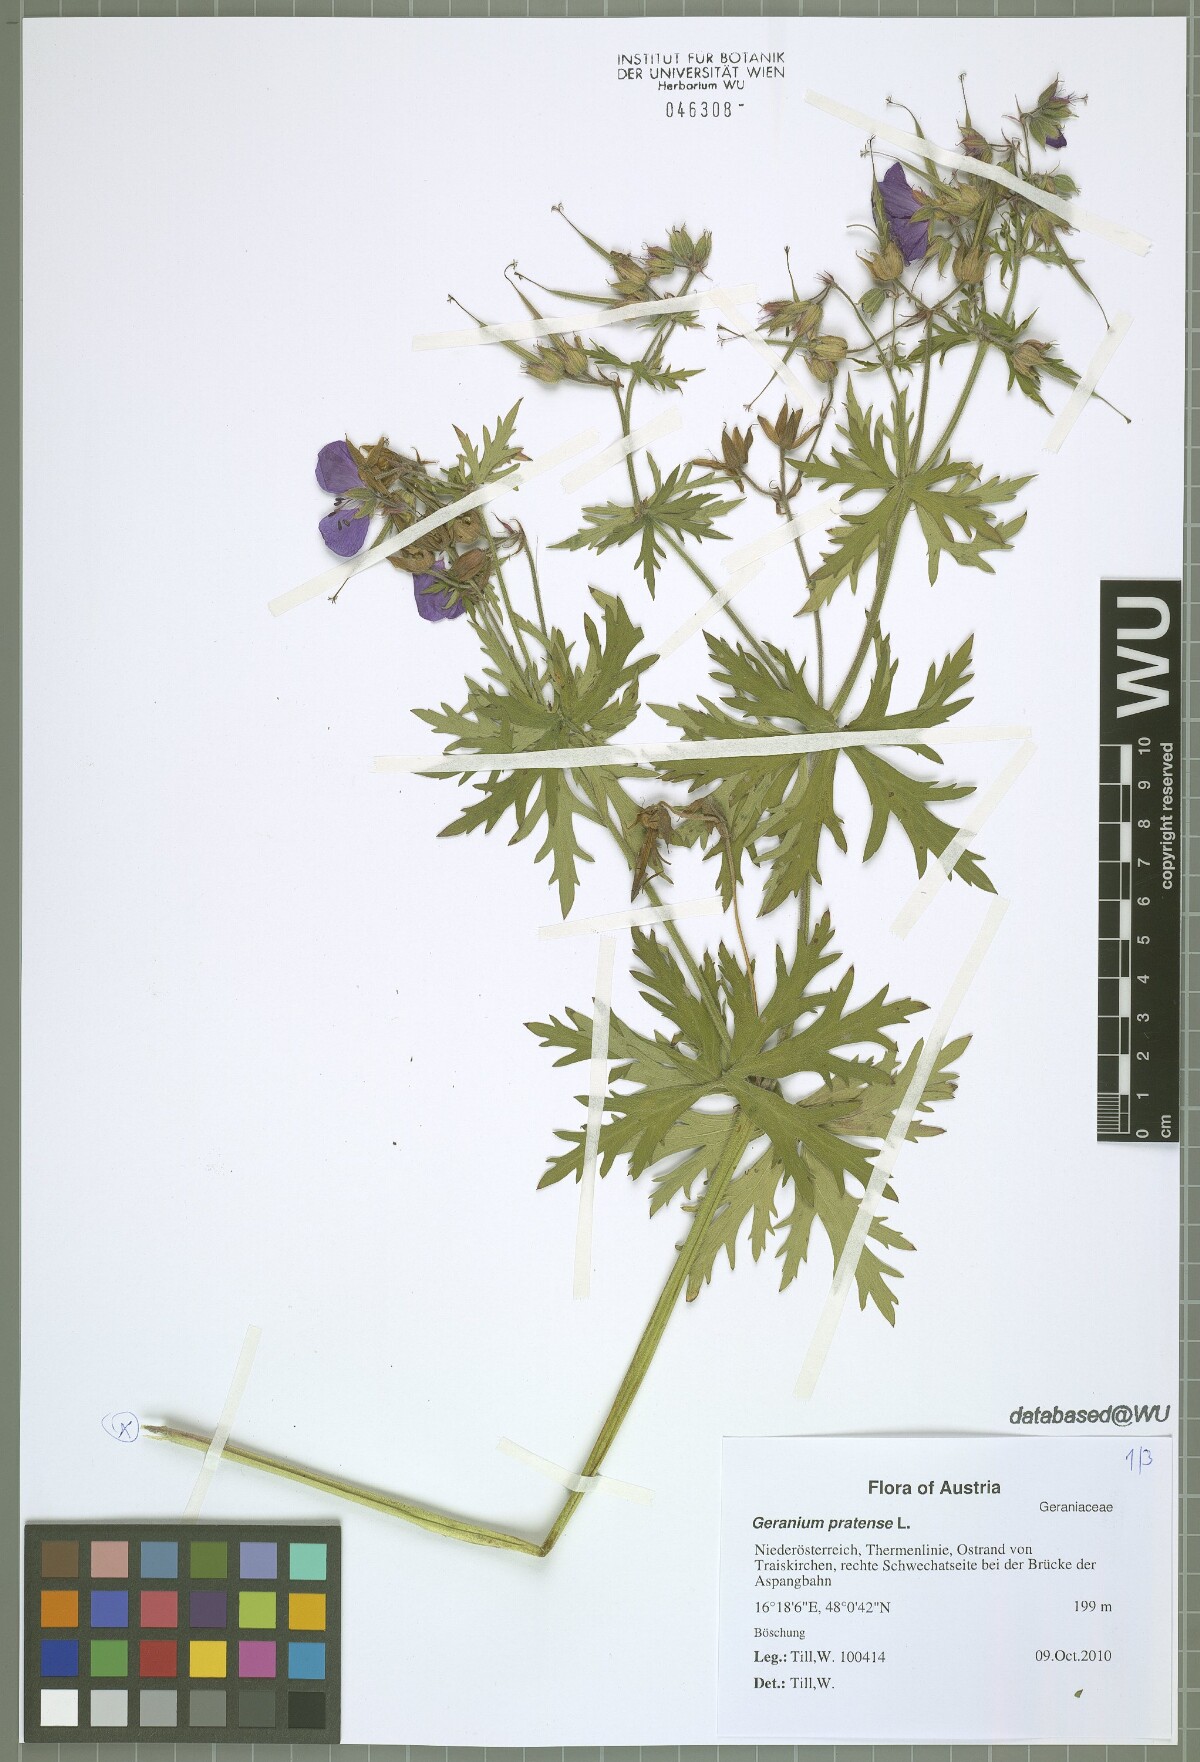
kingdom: Plantae
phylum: Tracheophyta
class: Magnoliopsida
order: Geraniales
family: Geraniaceae
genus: Geranium
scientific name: Geranium pratense
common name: Meadow crane's-bill
